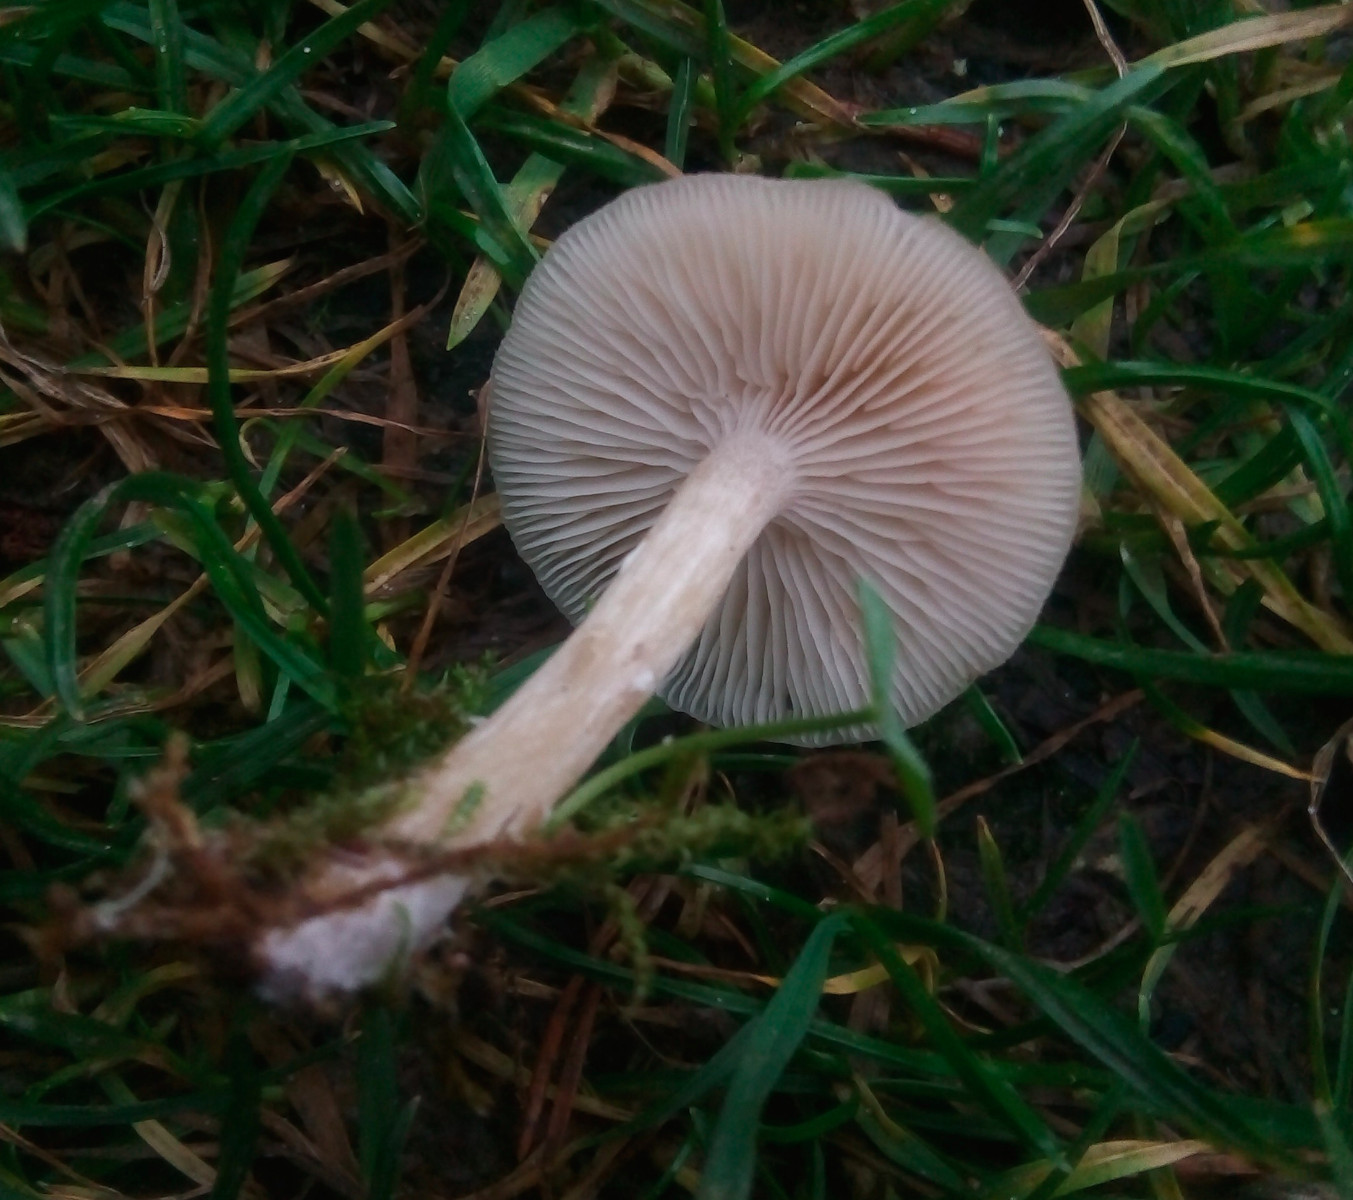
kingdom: Fungi
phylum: Basidiomycota
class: Agaricomycetes
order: Agaricales
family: Tricholomataceae
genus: Clitocybe
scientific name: Clitocybe fragrans
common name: vellugtende tragthat
